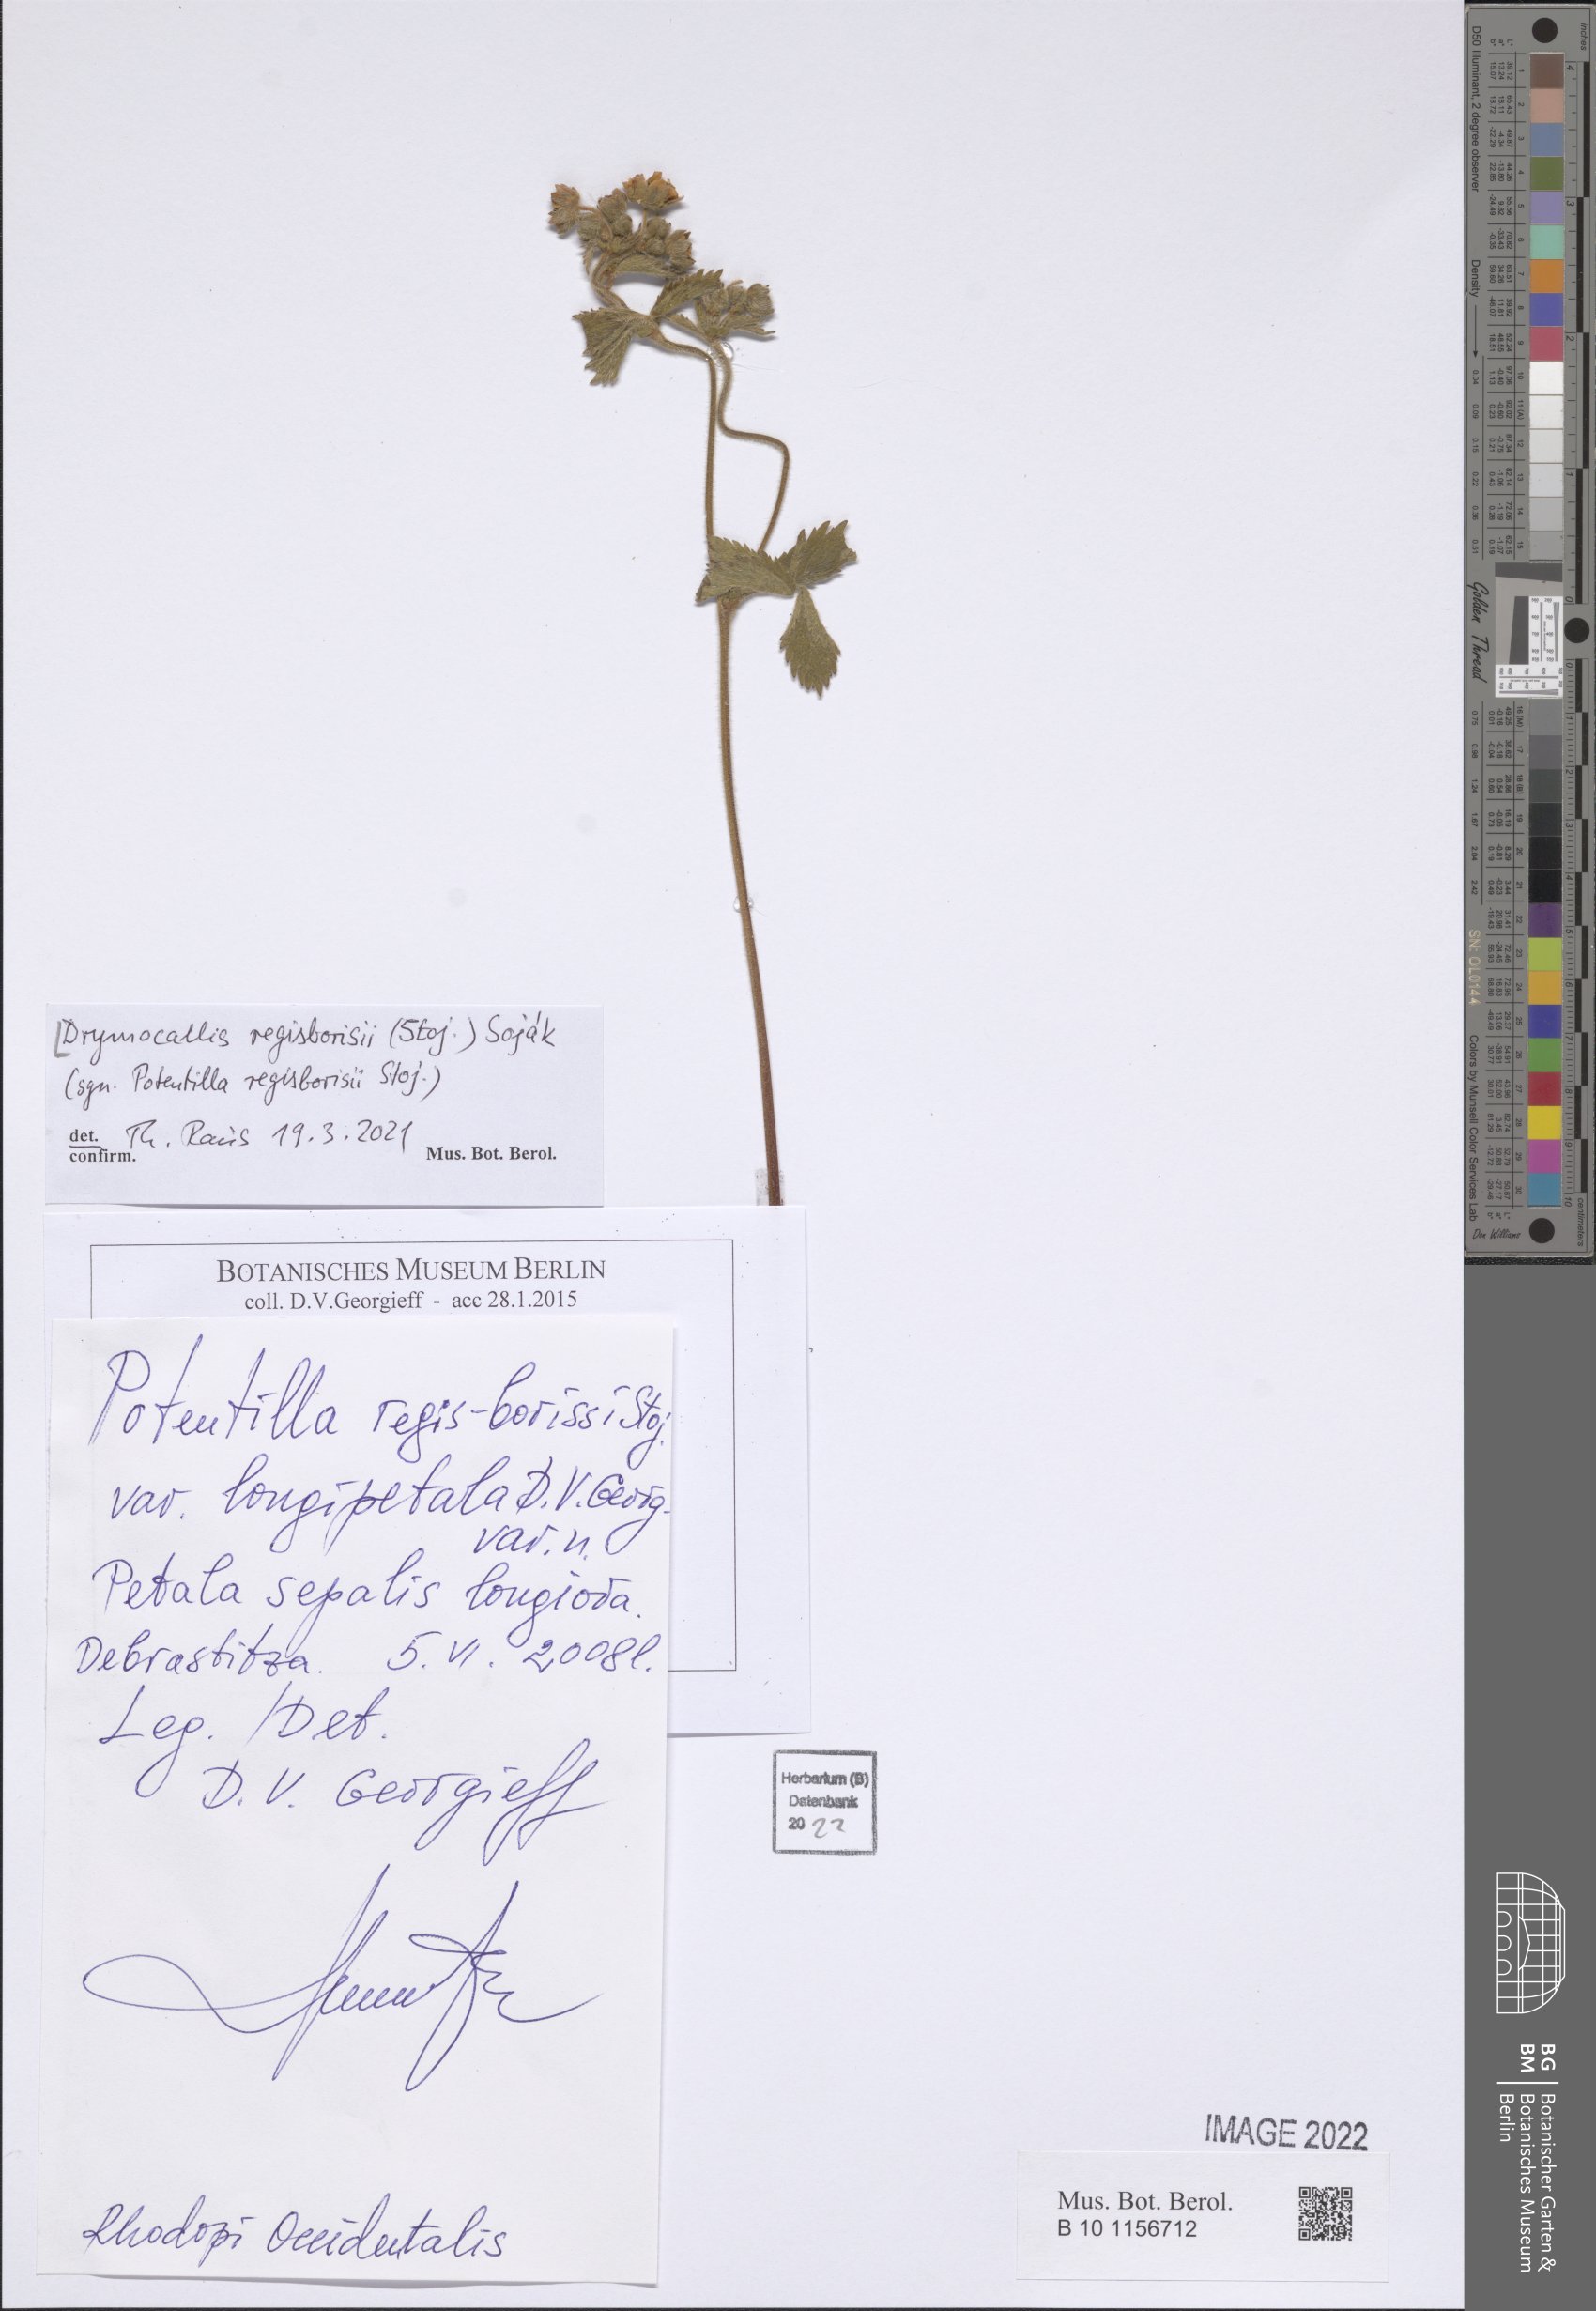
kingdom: Plantae
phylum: Tracheophyta
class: Magnoliopsida
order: Rosales
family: Rosaceae
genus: Drymocallis
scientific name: Drymocallis regisborisii
